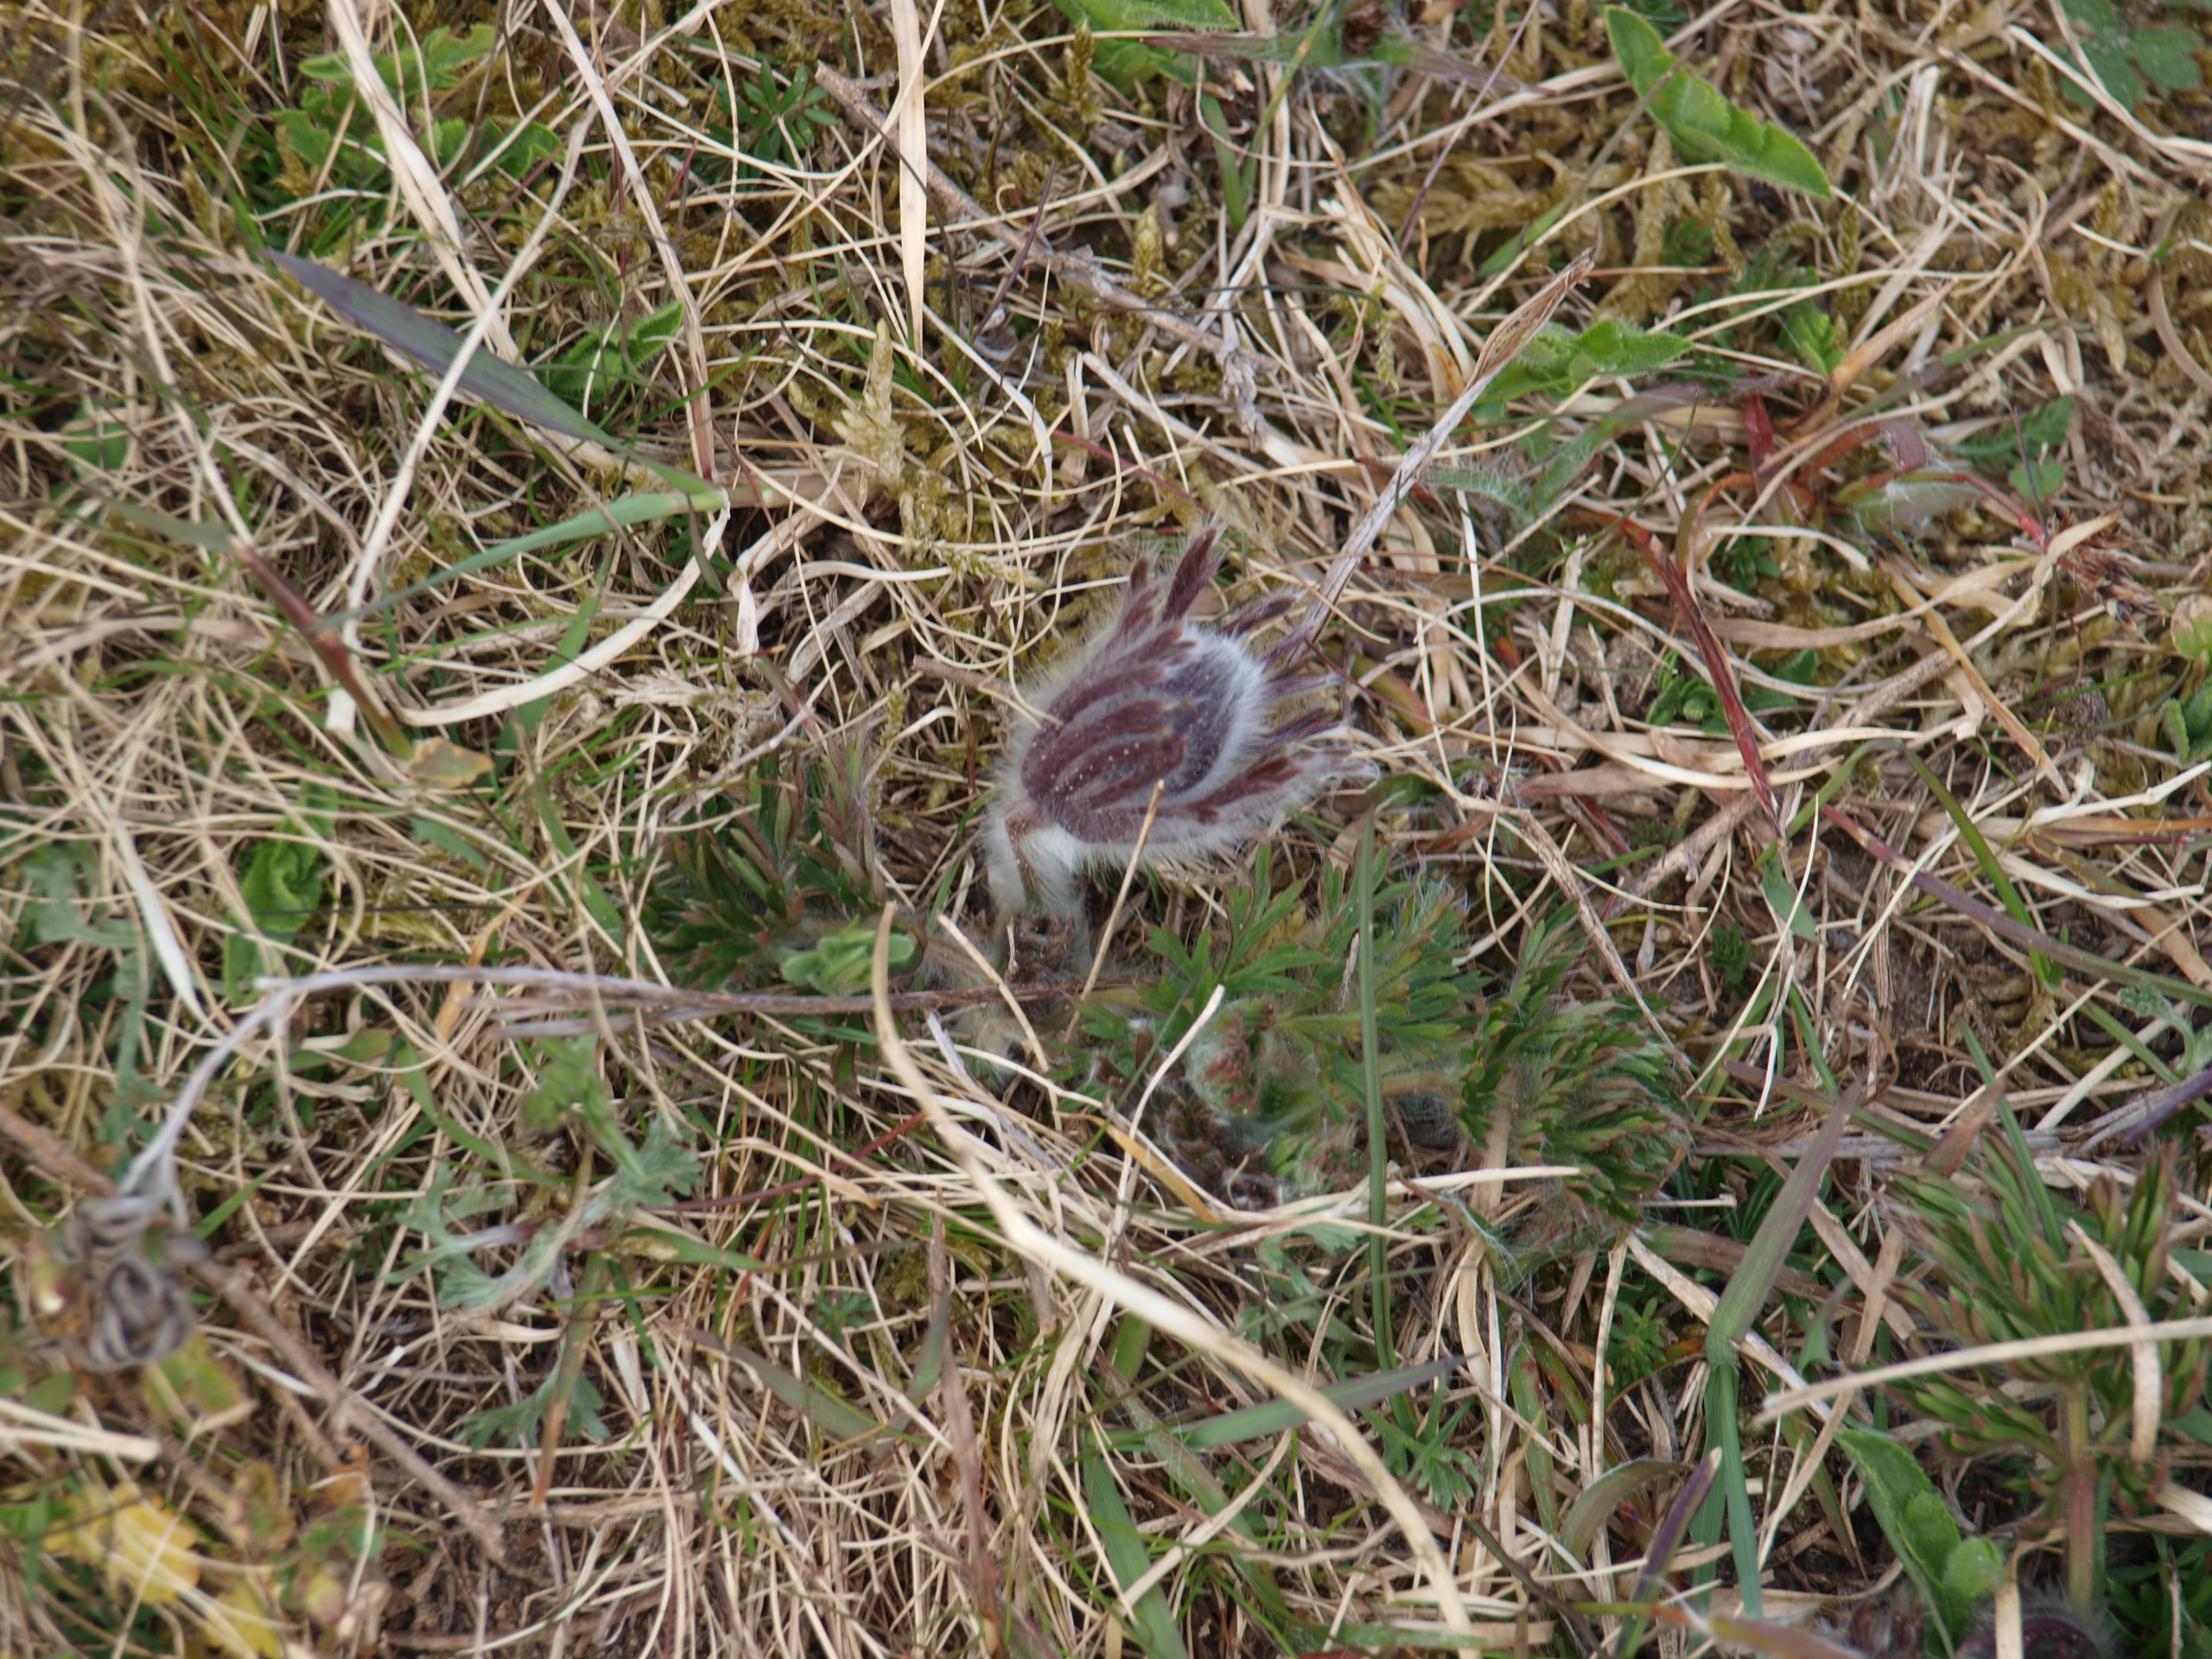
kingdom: Plantae
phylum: Tracheophyta
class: Magnoliopsida
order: Ranunculales
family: Ranunculaceae
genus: Pulsatilla
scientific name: Pulsatilla pratensis
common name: Nikkende kobjælde
